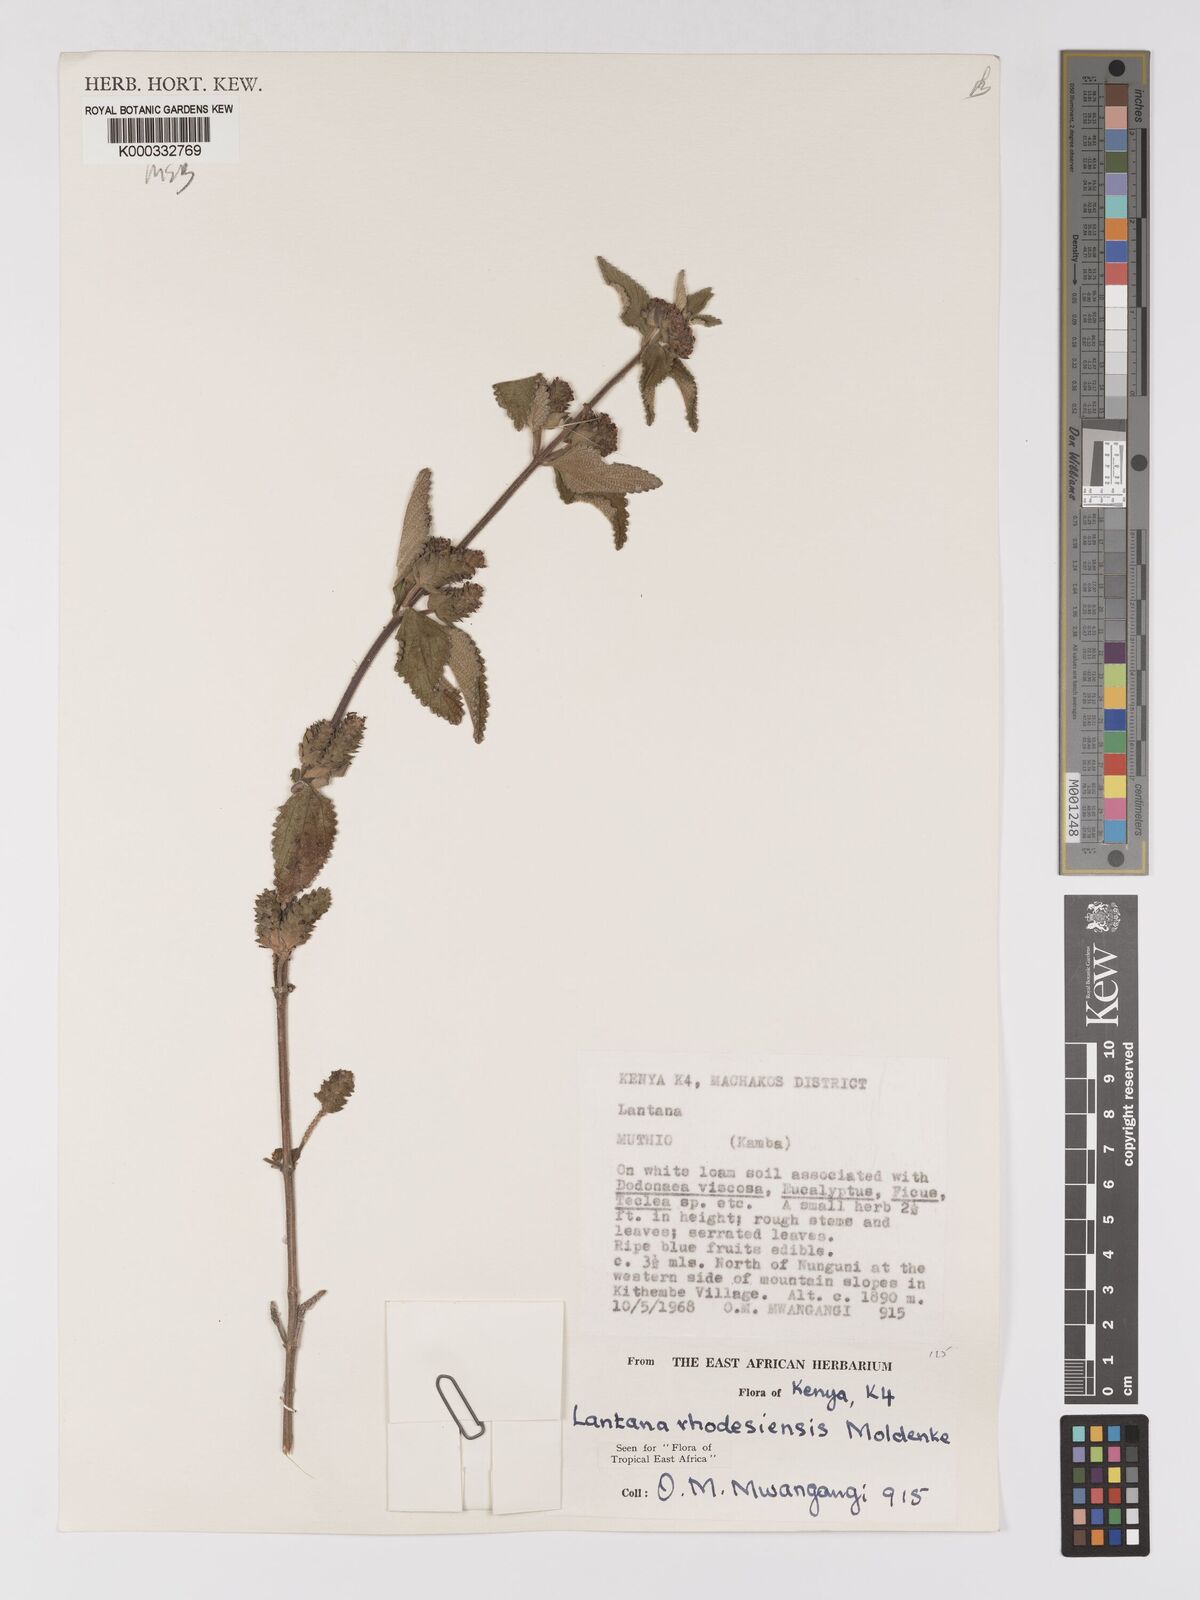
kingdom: Plantae
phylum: Tracheophyta
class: Magnoliopsida
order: Lamiales
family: Verbenaceae
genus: Lantana
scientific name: Lantana ukambensis
